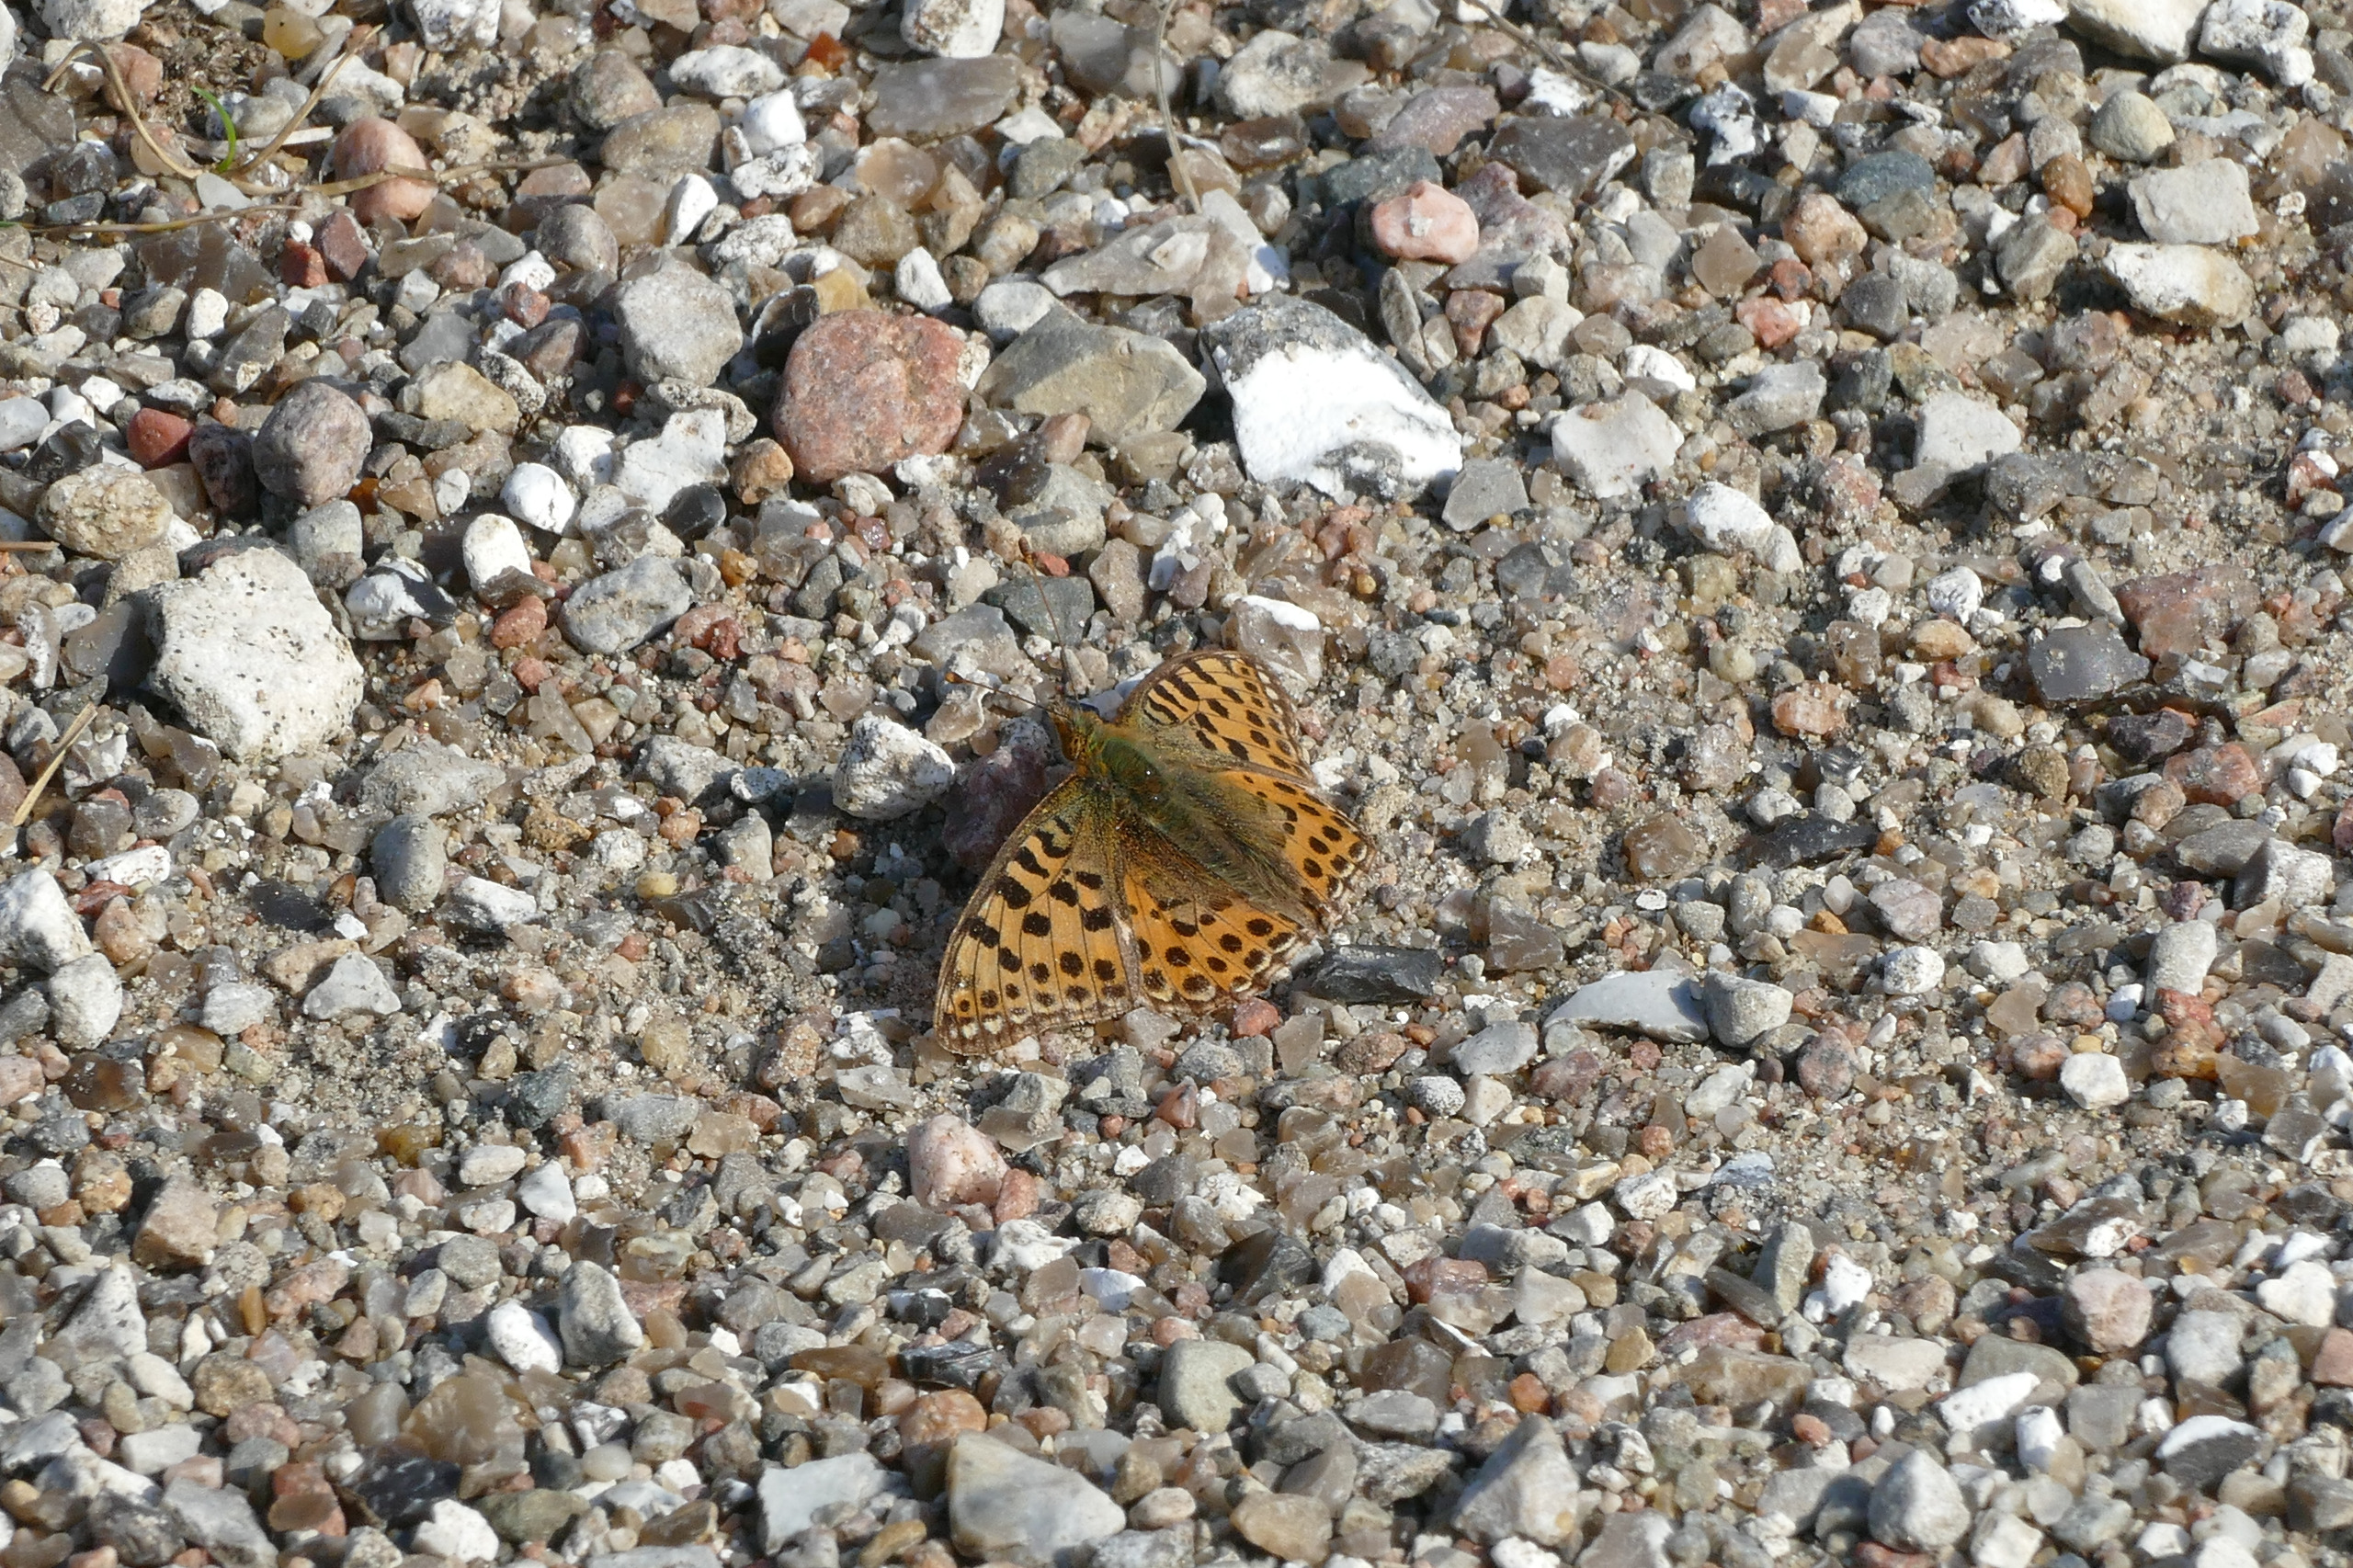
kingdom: Animalia
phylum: Arthropoda
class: Insecta
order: Lepidoptera
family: Nymphalidae
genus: Issoria
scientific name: Issoria lathonia
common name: Storplettet perlemorsommerfugl
